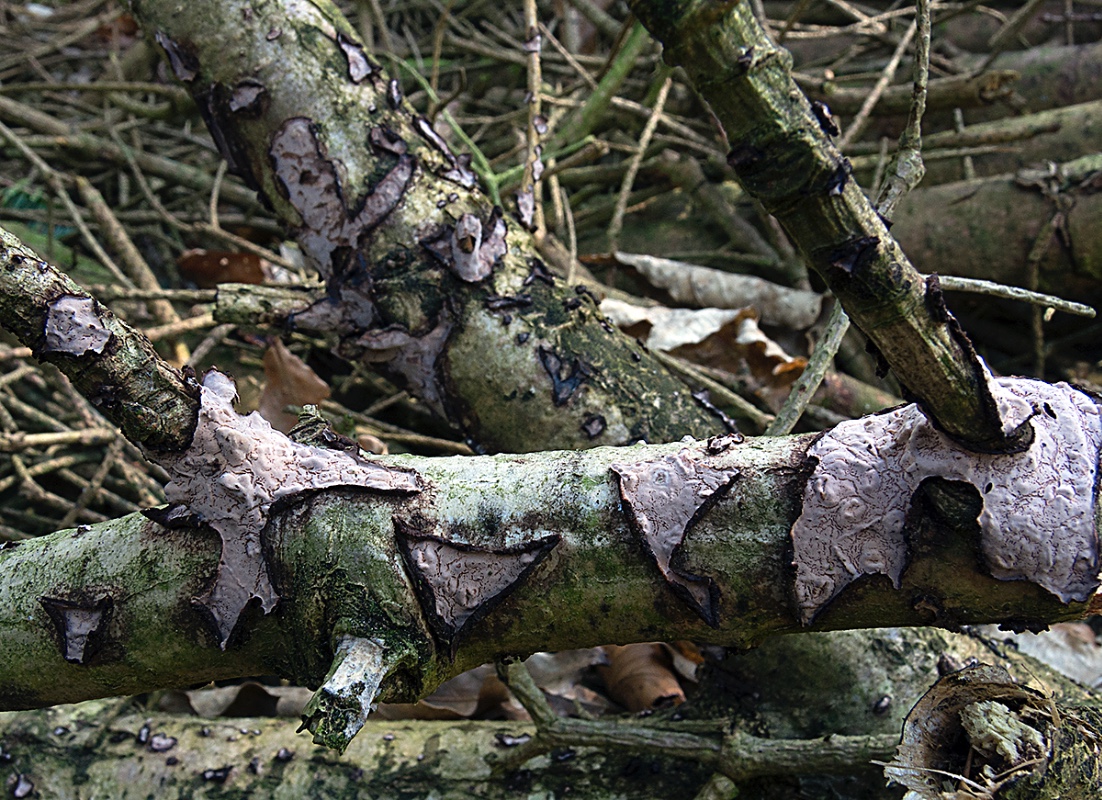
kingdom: Fungi
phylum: Basidiomycota
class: Agaricomycetes
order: Russulales
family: Peniophoraceae
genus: Peniophora
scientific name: Peniophora quercina
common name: ege-voksskind
